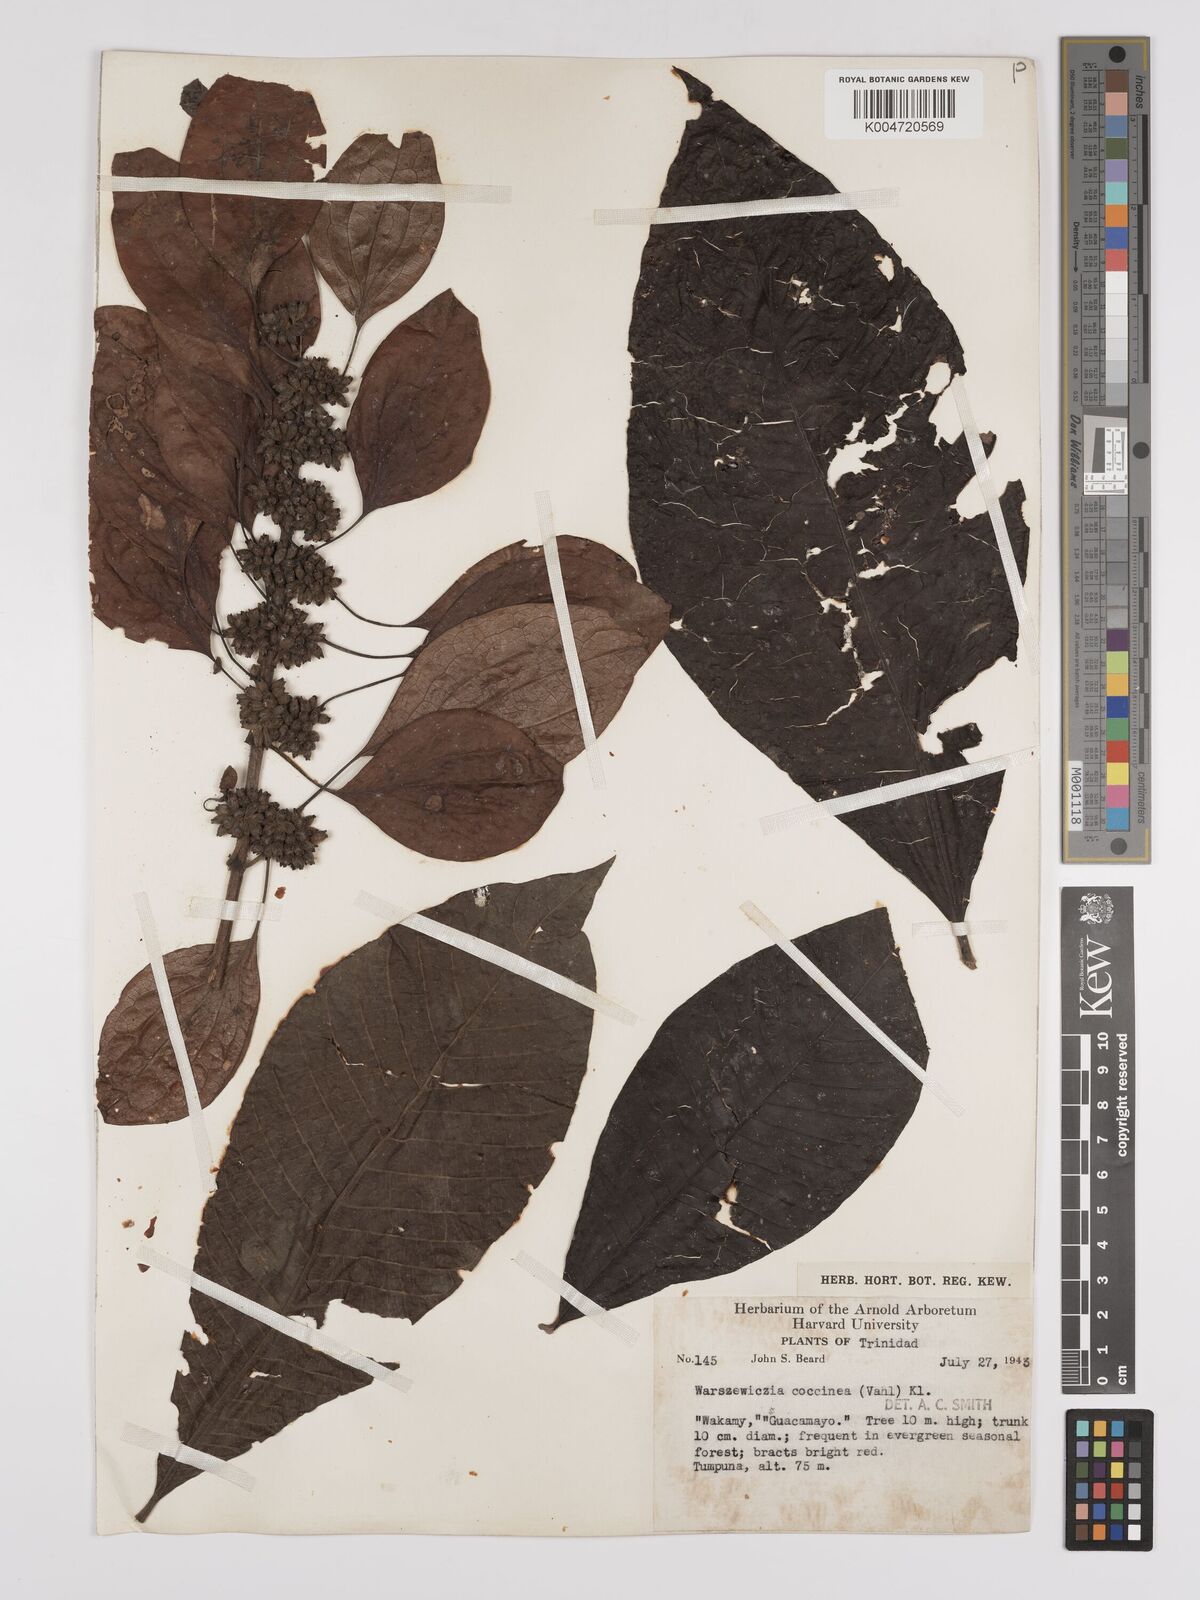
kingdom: Plantae
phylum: Tracheophyta
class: Magnoliopsida
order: Gentianales
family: Rubiaceae
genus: Warszewiczia
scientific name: Warszewiczia coccinea
